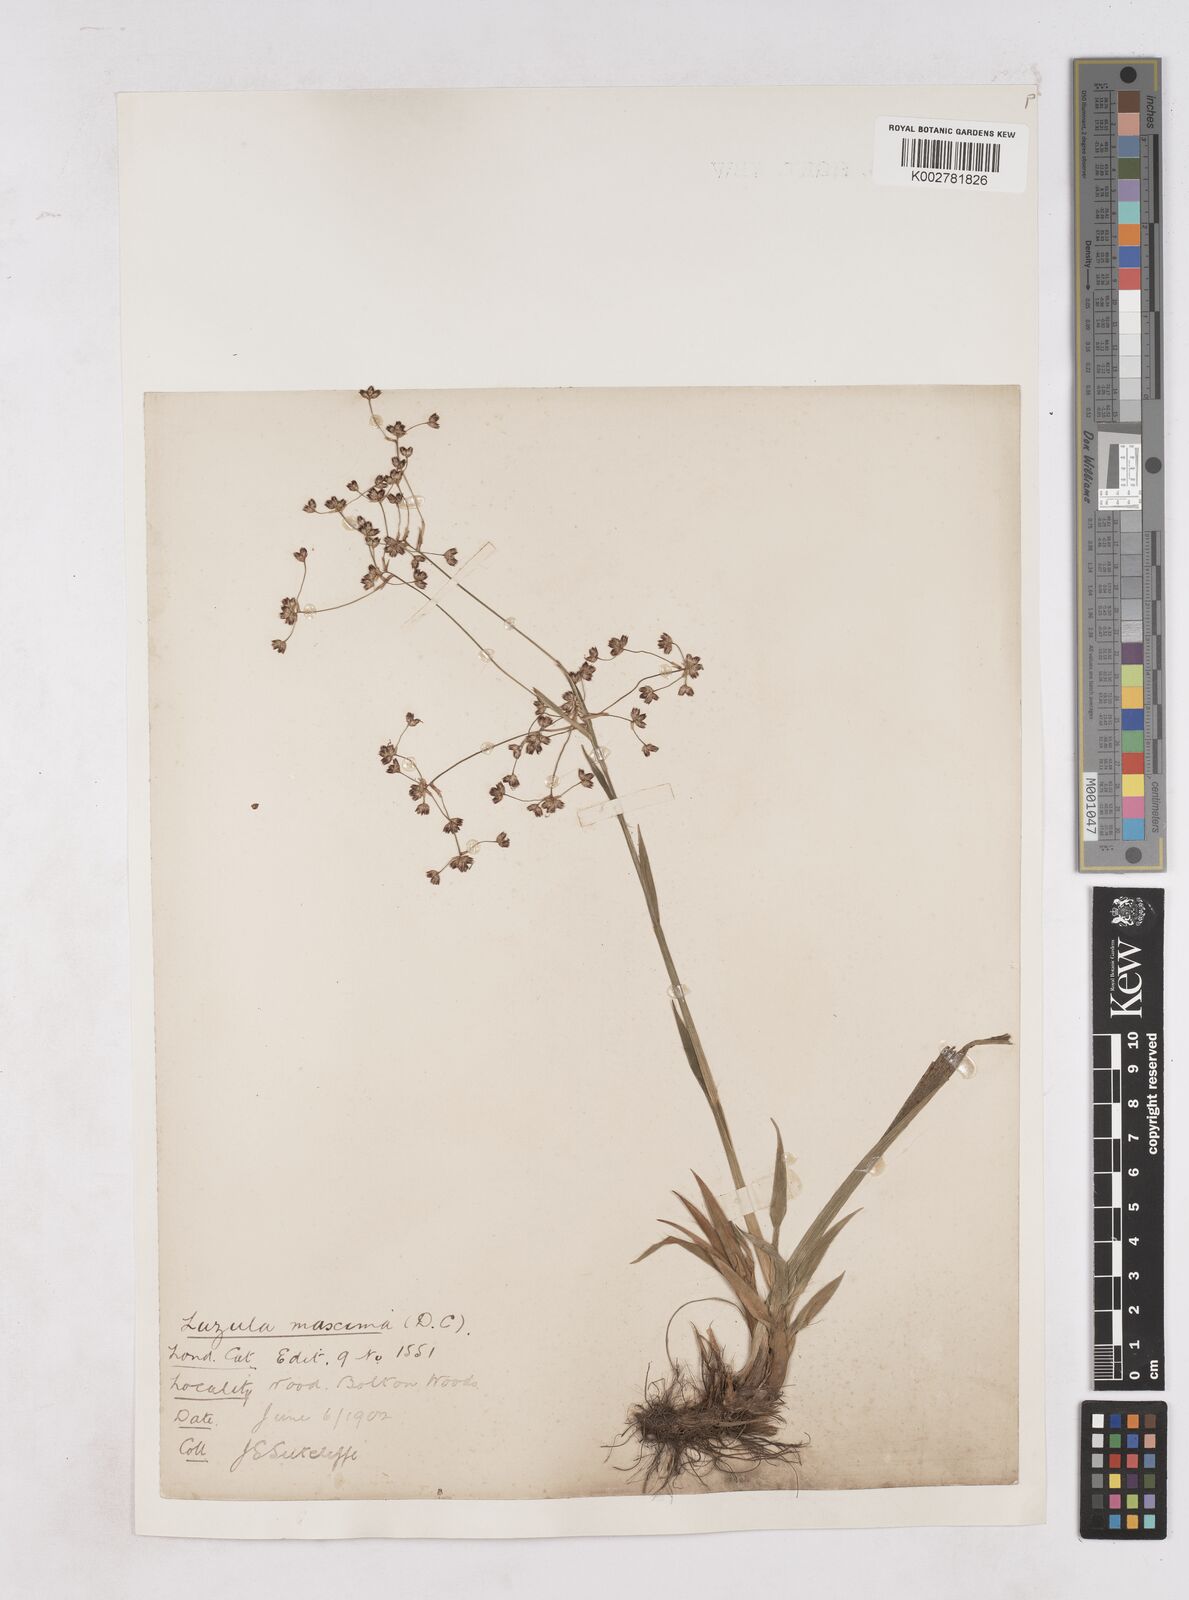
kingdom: Plantae
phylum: Tracheophyta
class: Liliopsida
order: Poales
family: Juncaceae
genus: Luzula
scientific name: Luzula sylvatica
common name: Great wood-rush
